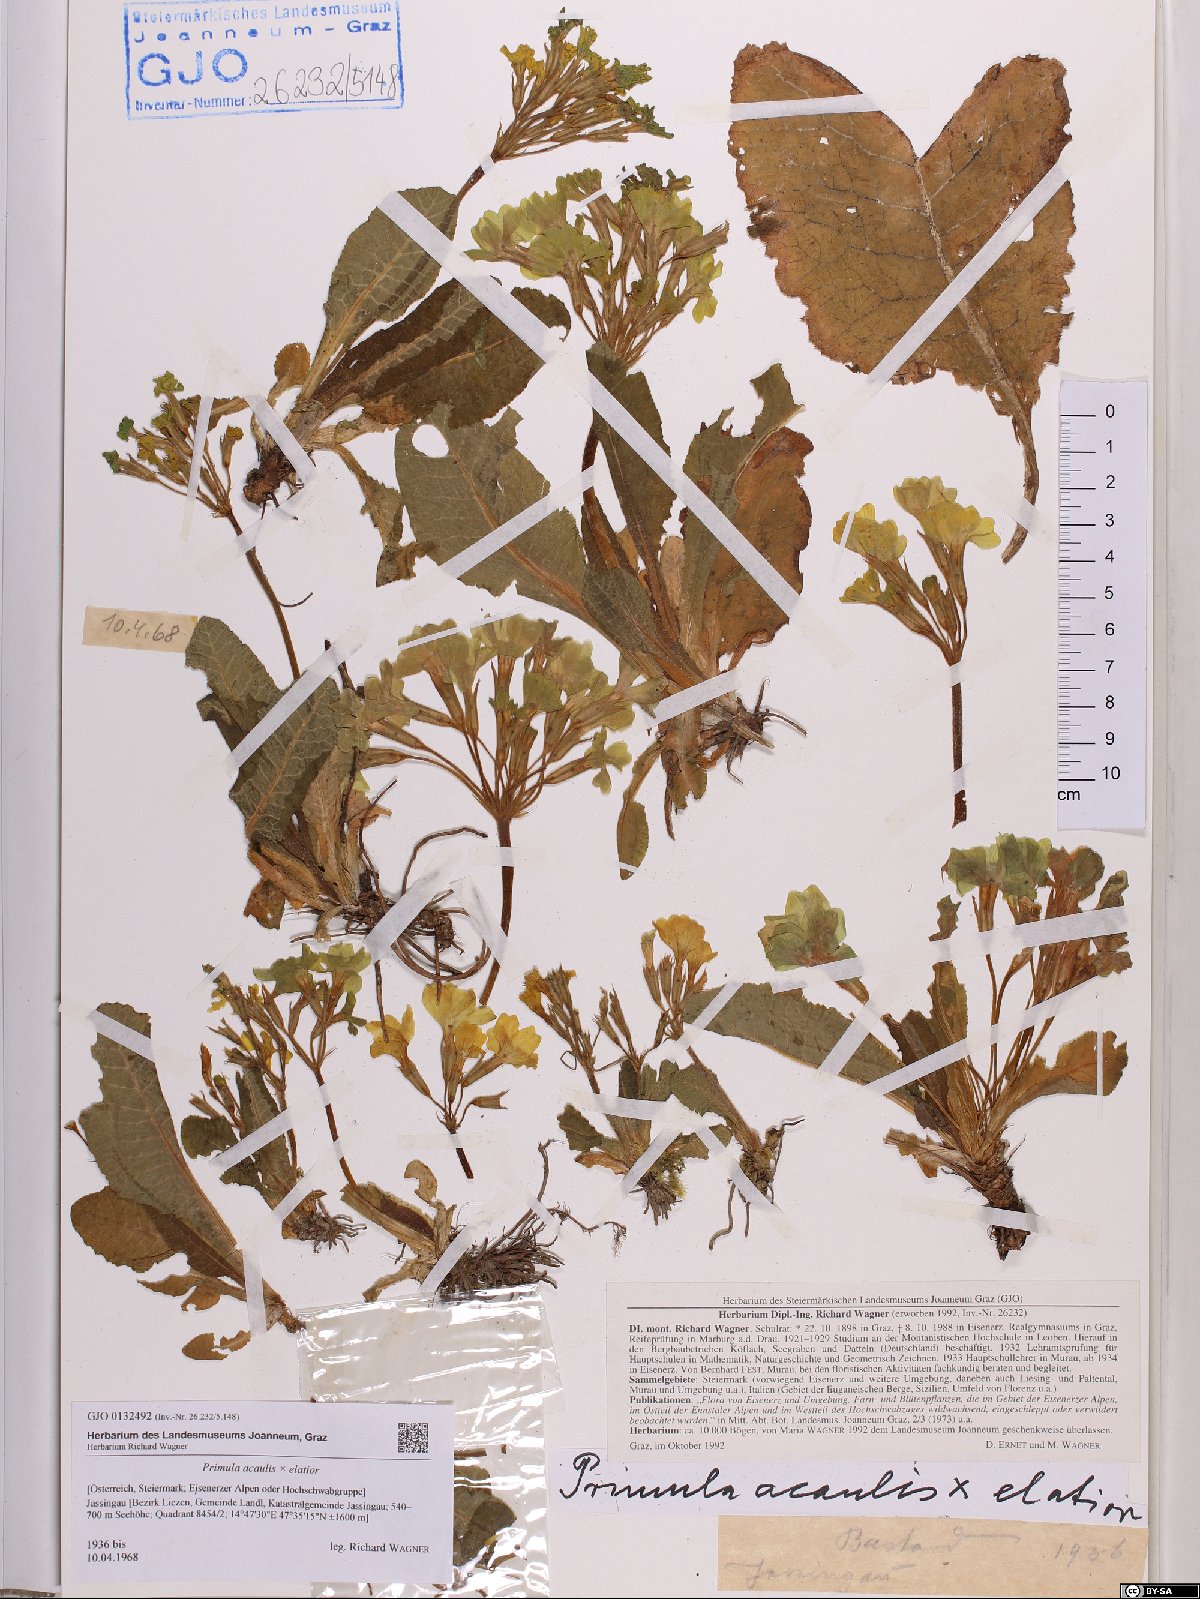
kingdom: Plantae
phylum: Tracheophyta
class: Magnoliopsida
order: Ericales
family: Primulaceae
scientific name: Primulaceae
